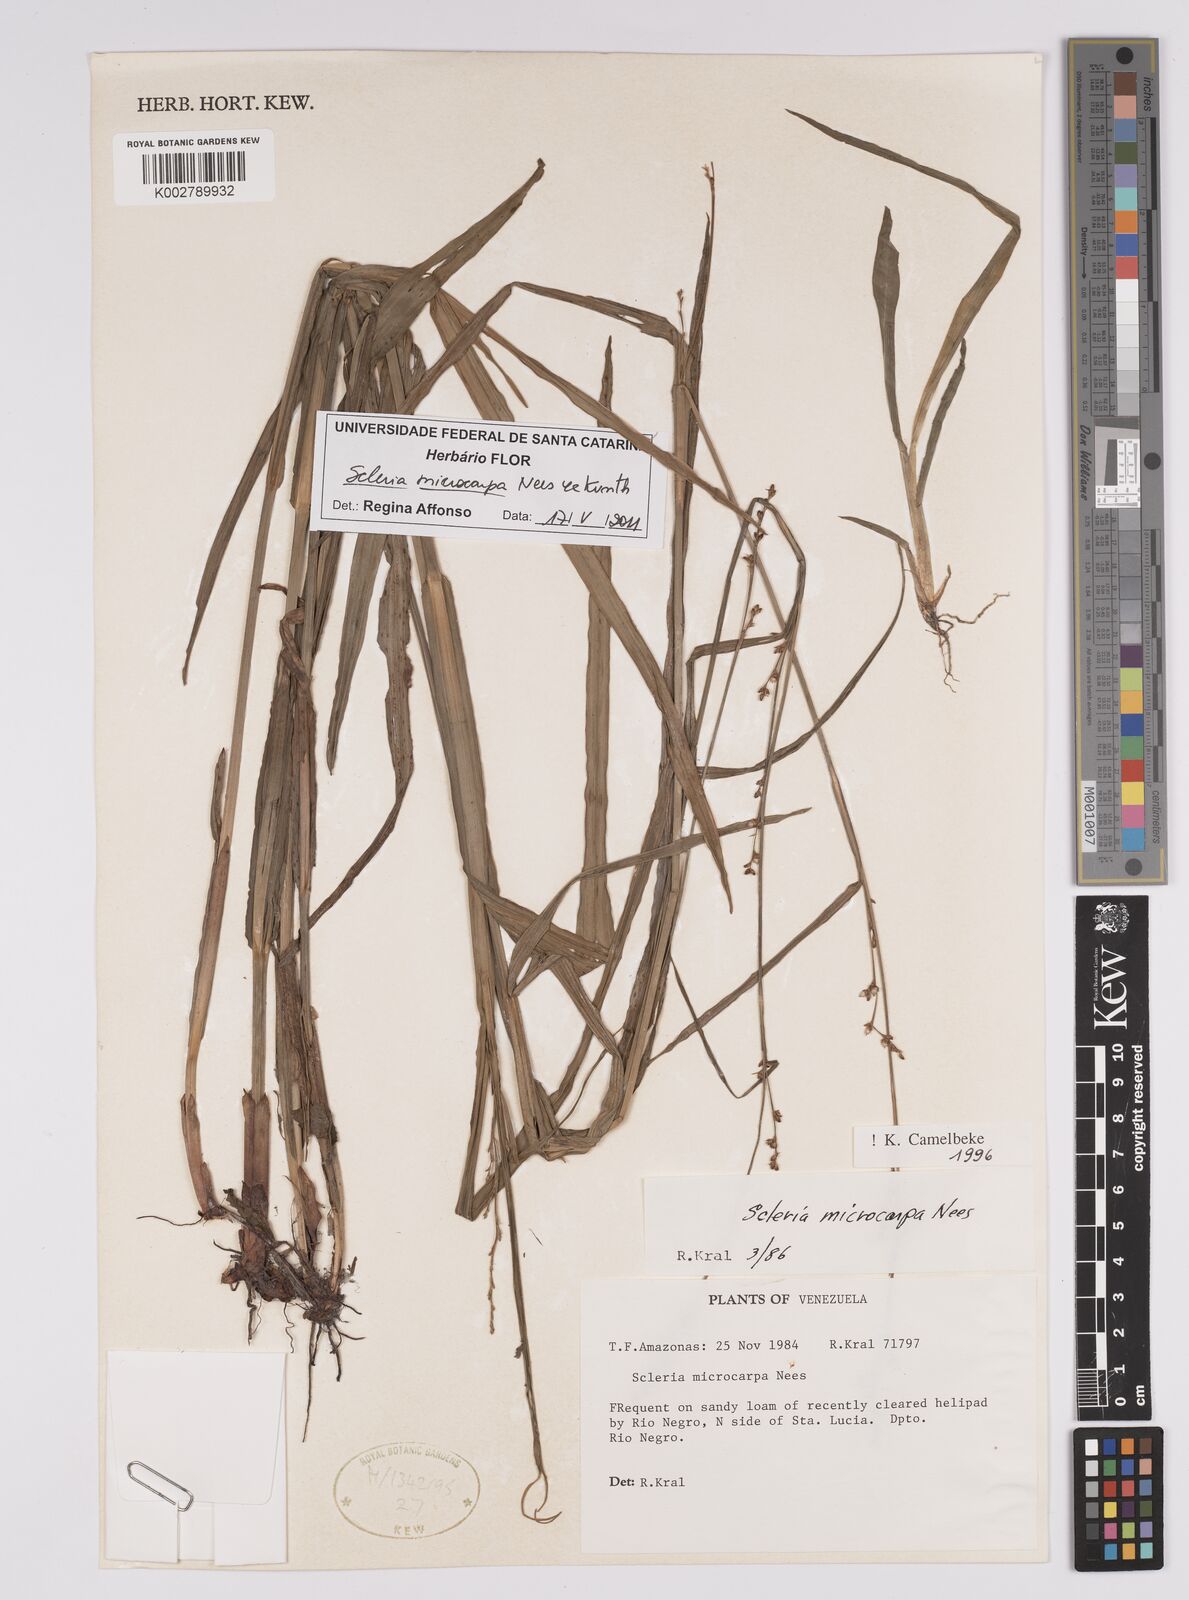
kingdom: Plantae
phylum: Tracheophyta
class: Liliopsida
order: Poales
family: Cyperaceae
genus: Scleria
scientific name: Scleria microcarpa
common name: Tropical nutrush
